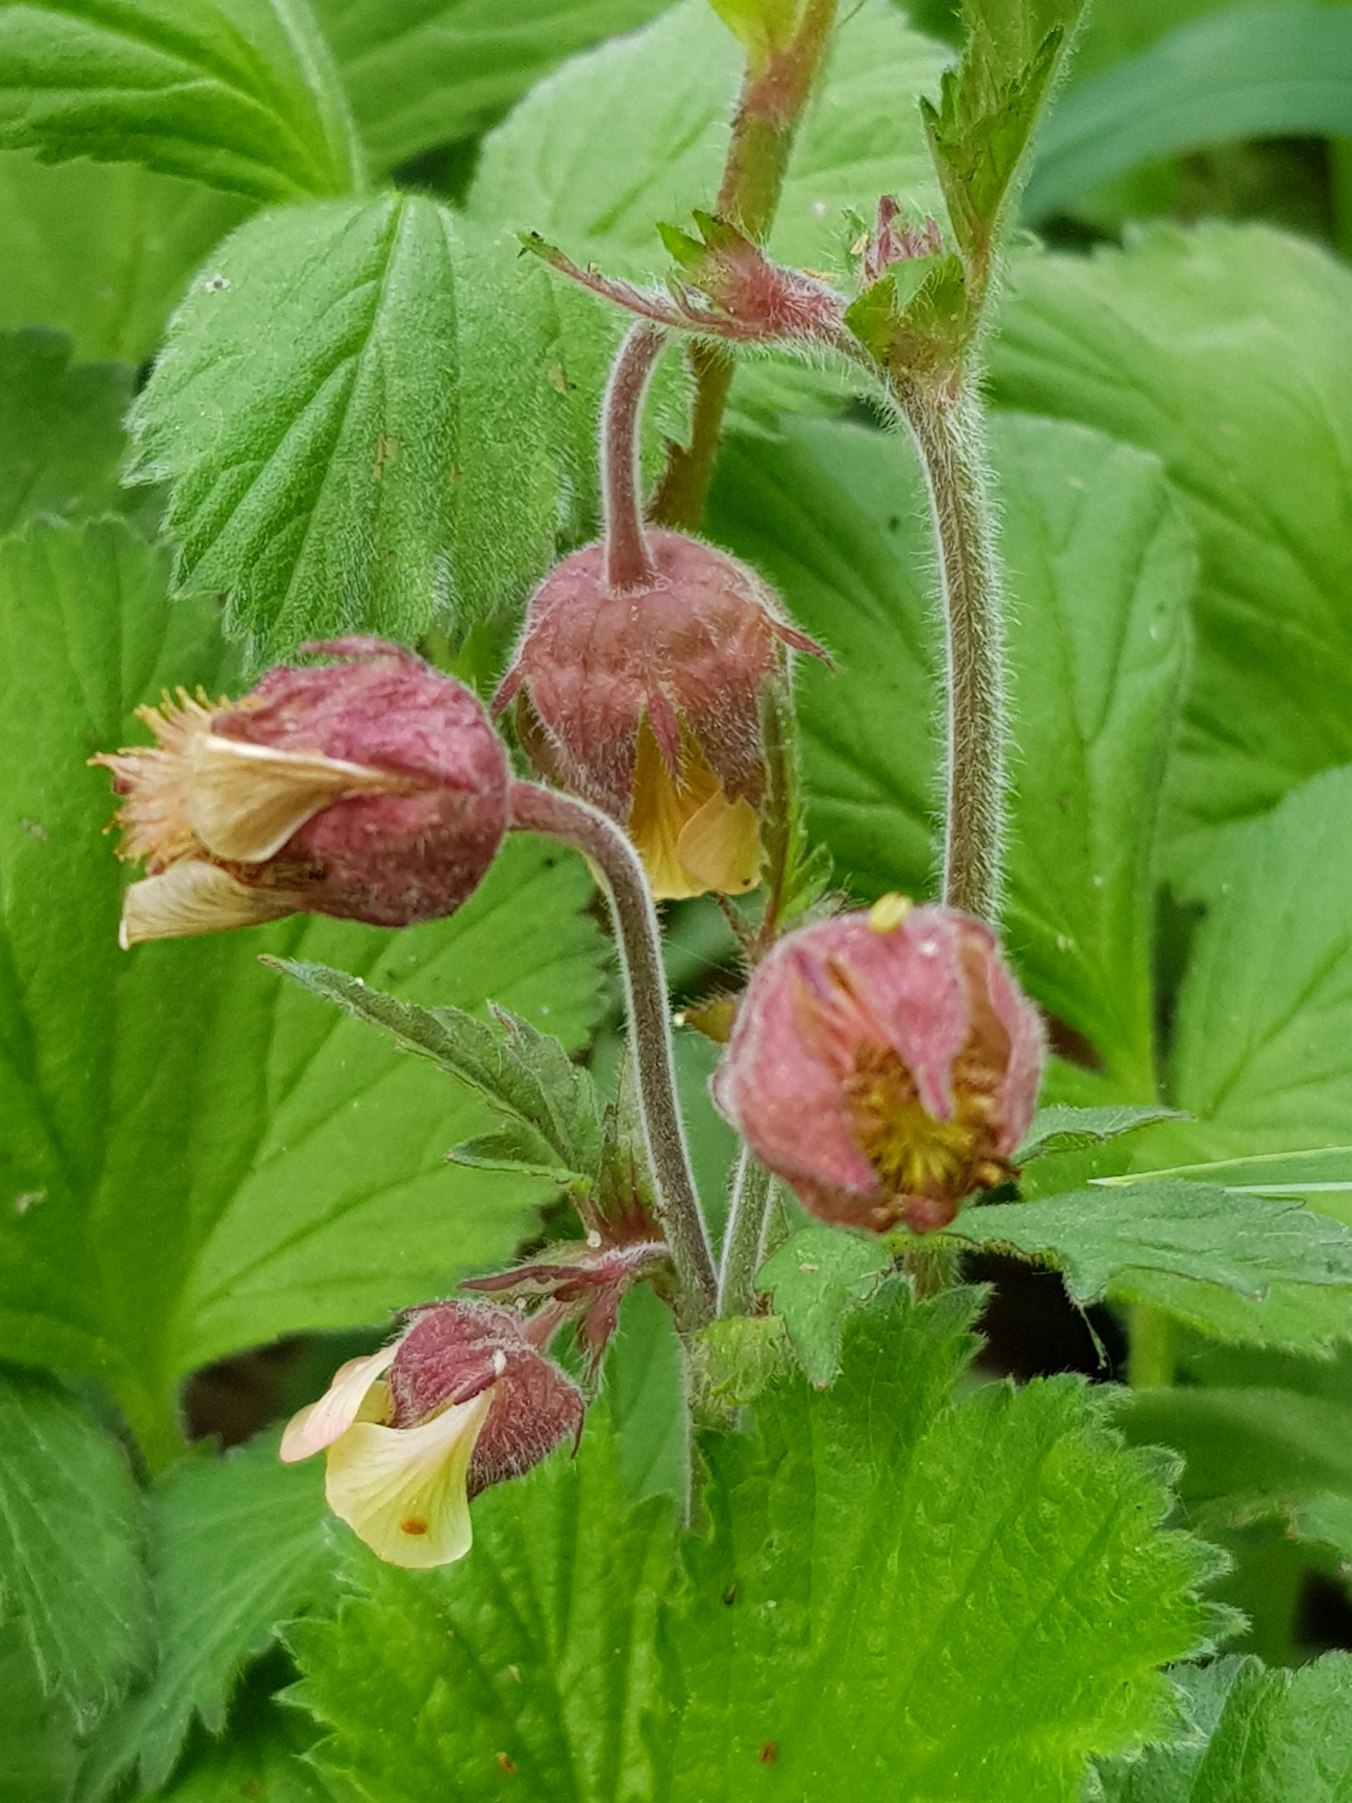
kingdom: Plantae
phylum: Tracheophyta
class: Magnoliopsida
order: Rosales
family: Rosaceae
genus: Geum
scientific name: Geum rivale
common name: Eng-nellikerod
